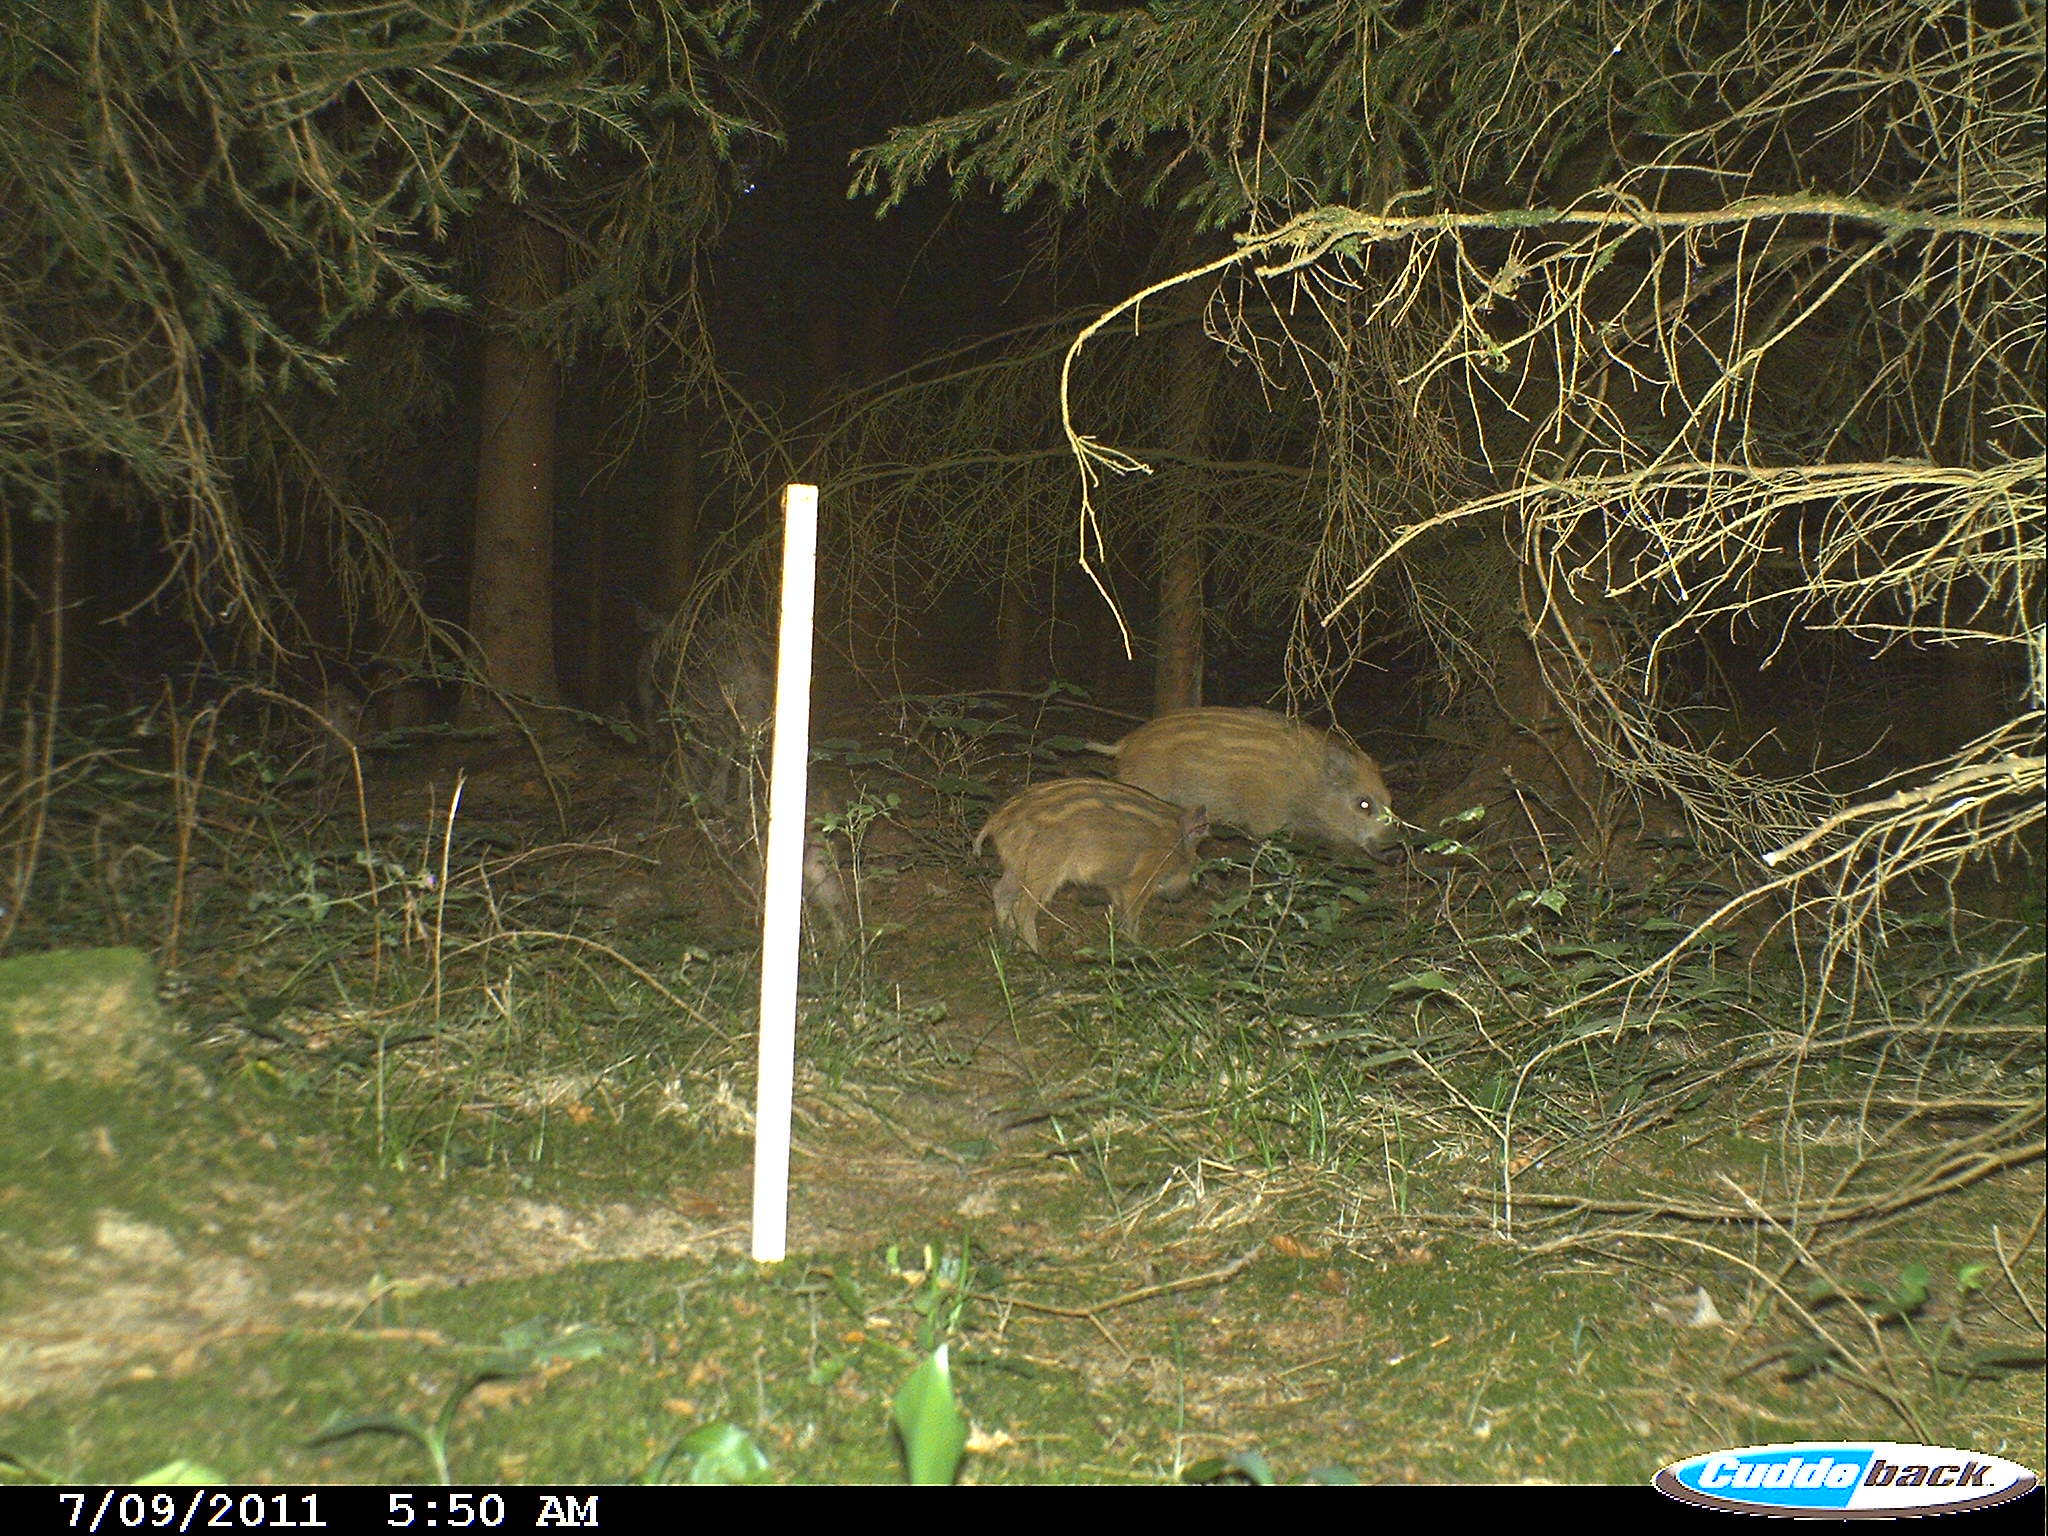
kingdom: Animalia
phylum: Chordata
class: Mammalia
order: Artiodactyla
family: Suidae
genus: Sus
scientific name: Sus scrofa
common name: Wild boar
